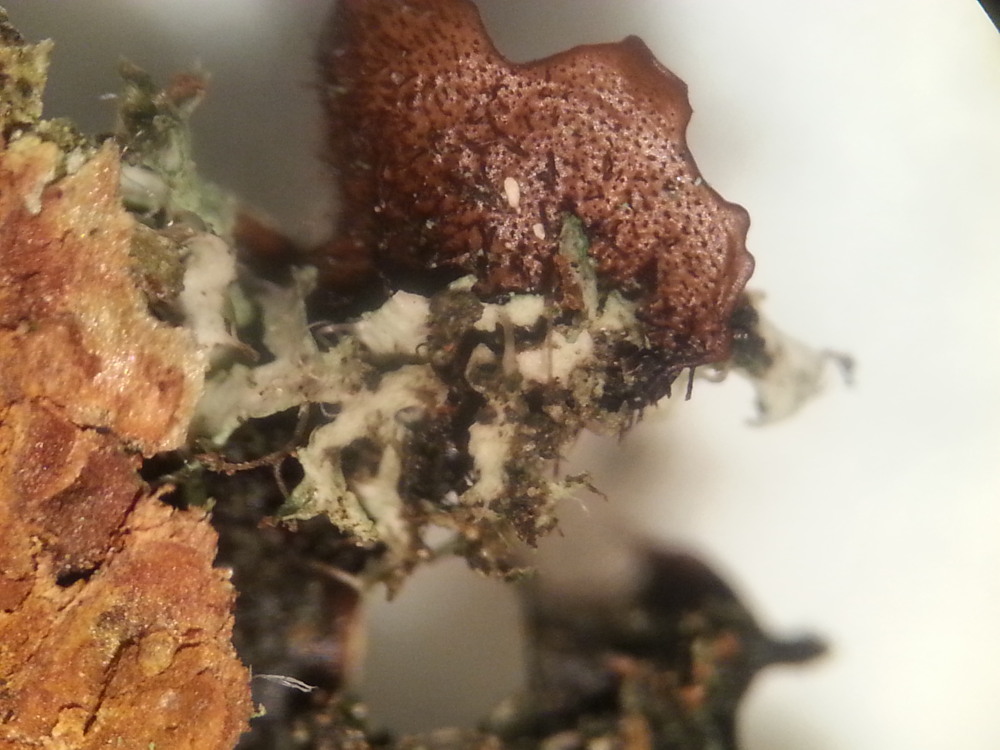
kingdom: Fungi
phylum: Ascomycota
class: Lecanoromycetes
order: Lecanorales
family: Parmeliaceae
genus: Parmelia
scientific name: Parmelia sulcata
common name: rynket skållav
